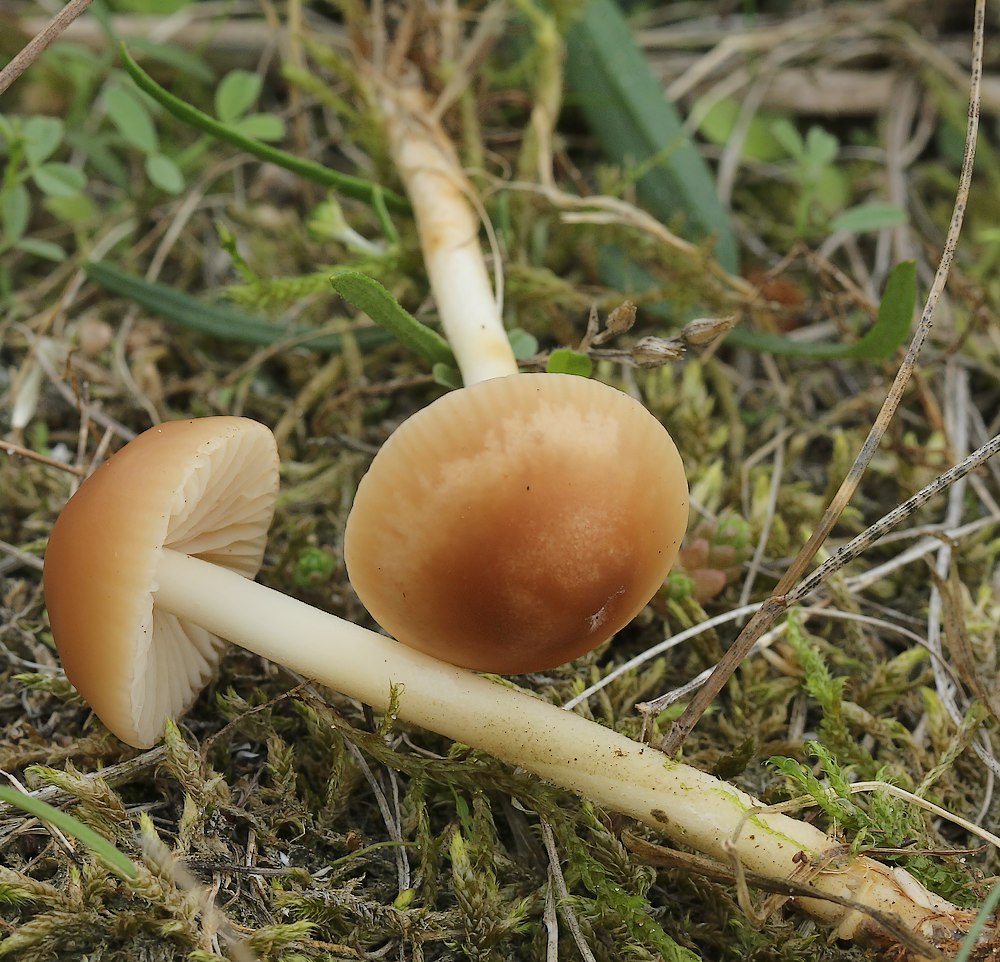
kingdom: Fungi
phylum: Basidiomycota
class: Agaricomycetes
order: Agaricales
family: Marasmiaceae
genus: Marasmius
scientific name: Marasmius oreades
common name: elledans-bruskhat
